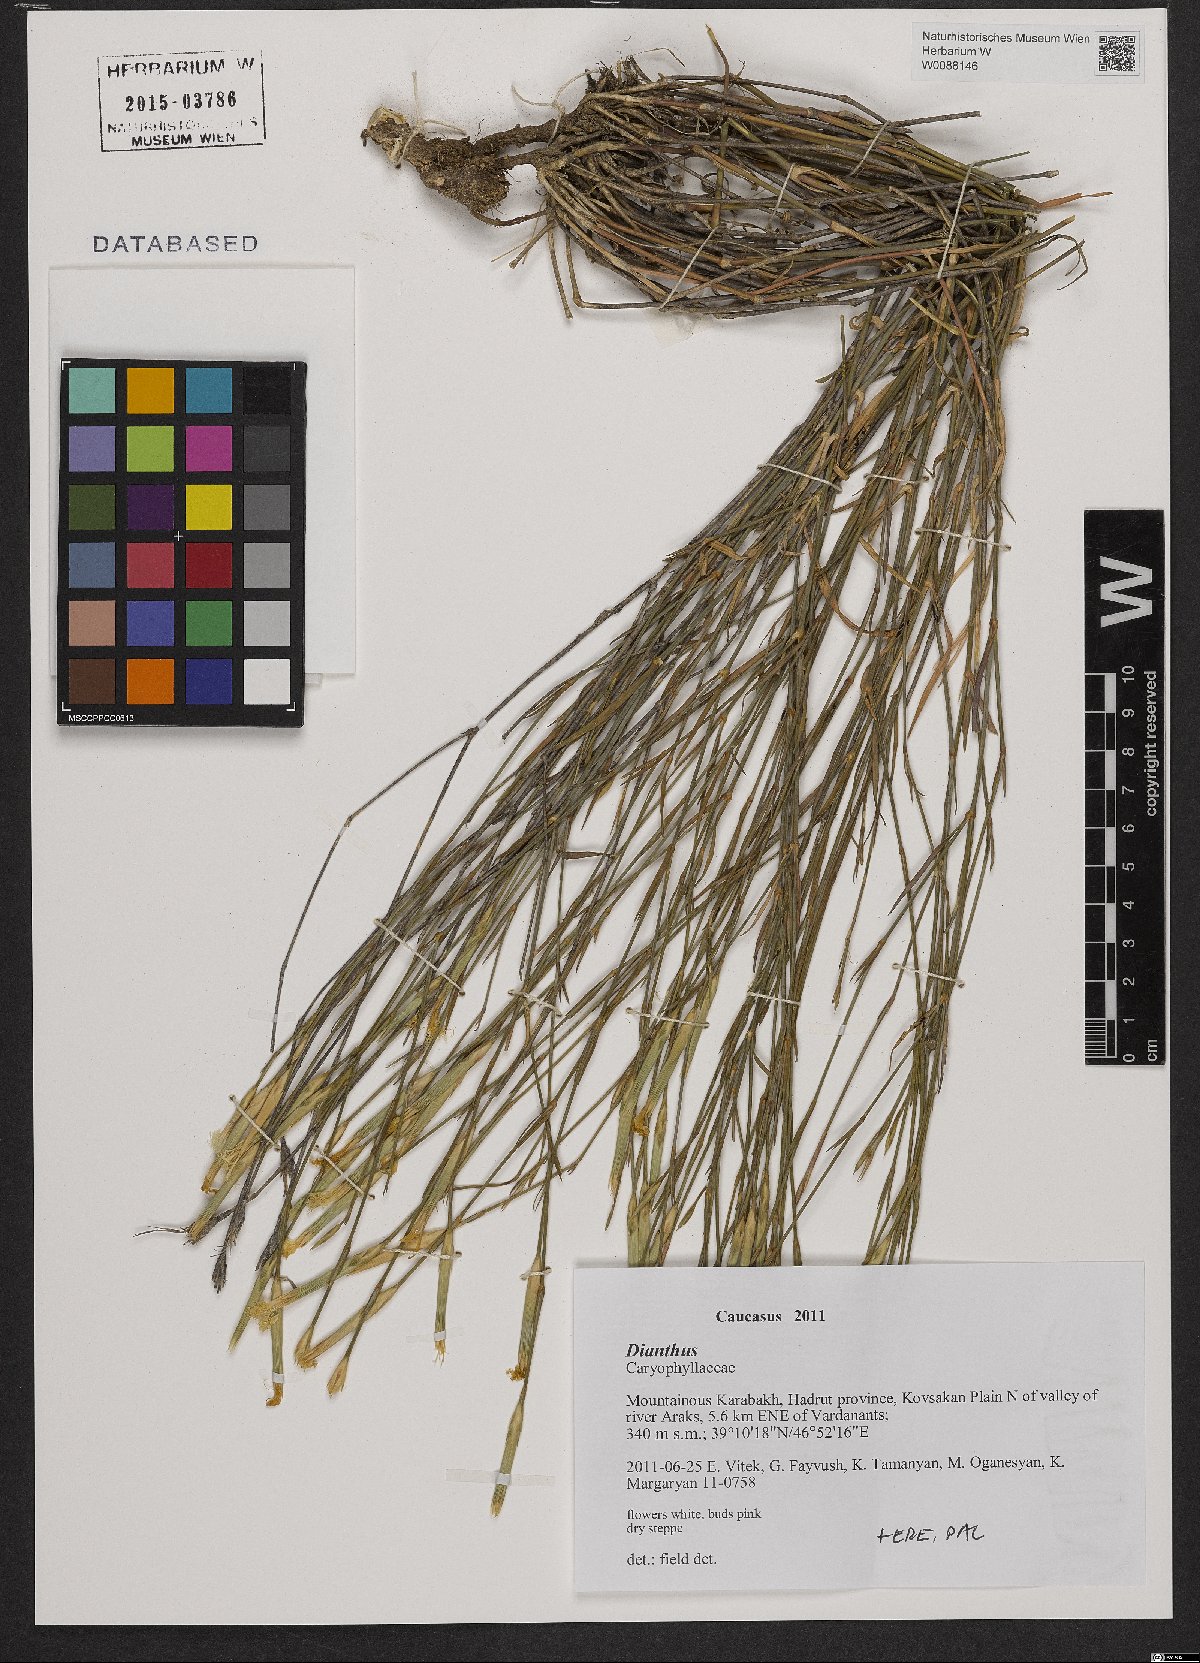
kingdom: Plantae
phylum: Tracheophyta
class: Magnoliopsida
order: Caryophyllales
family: Caryophyllaceae
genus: Dianthus
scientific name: Dianthus
